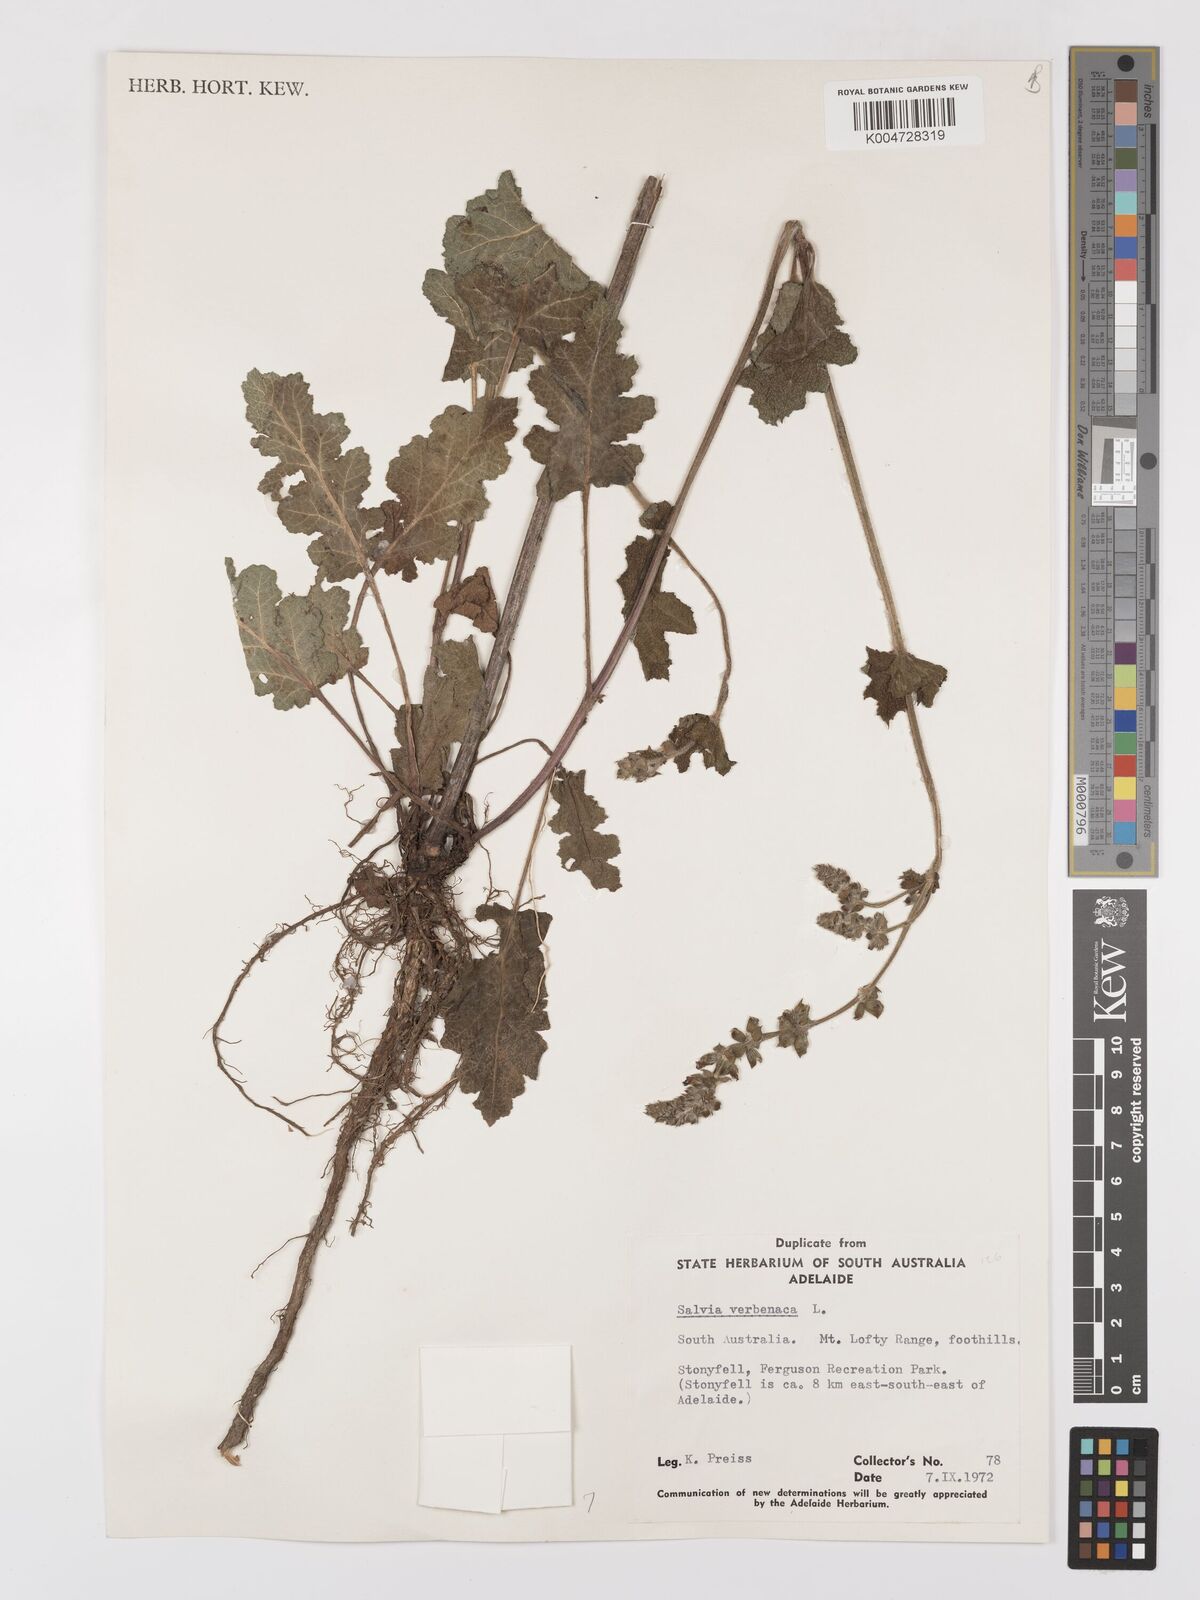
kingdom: Plantae
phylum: Tracheophyta
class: Magnoliopsida
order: Lamiales
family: Lamiaceae
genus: Salvia
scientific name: Salvia verbenaca
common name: Wild clary
